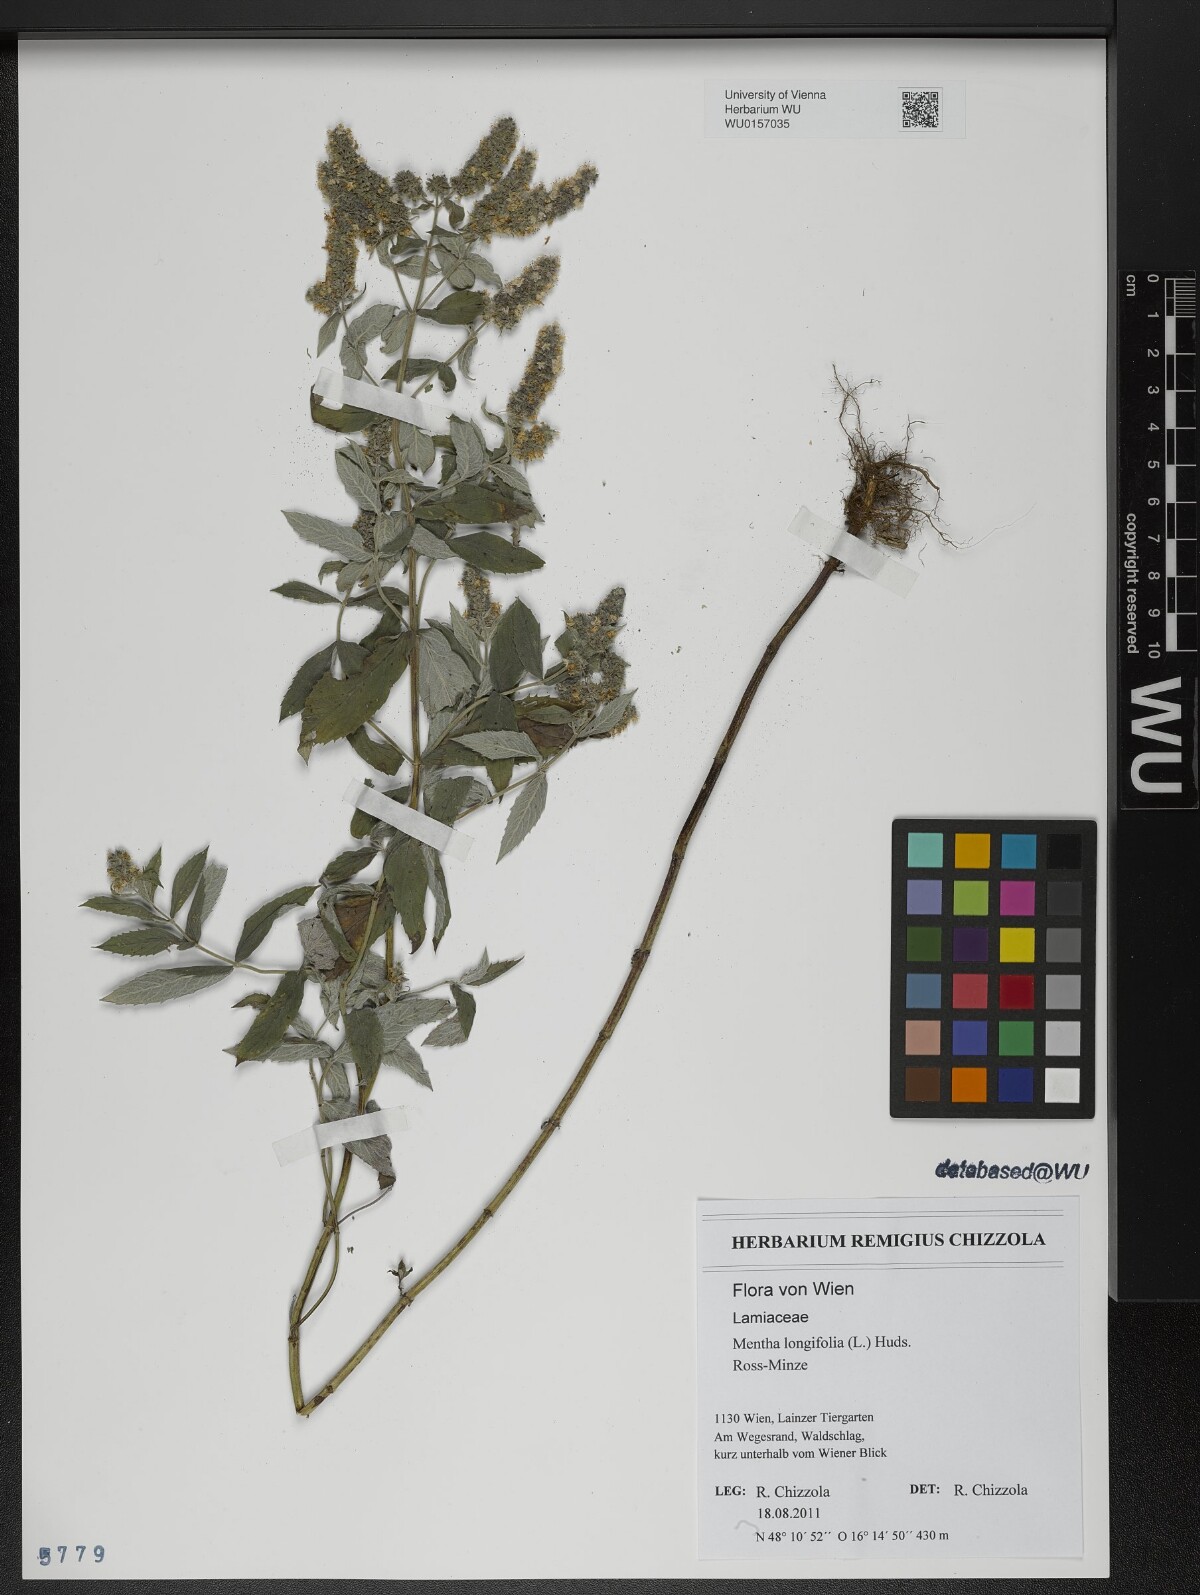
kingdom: Plantae
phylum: Tracheophyta
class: Magnoliopsida
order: Lamiales
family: Lamiaceae
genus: Mentha
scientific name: Mentha longifolia
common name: Horse mint
